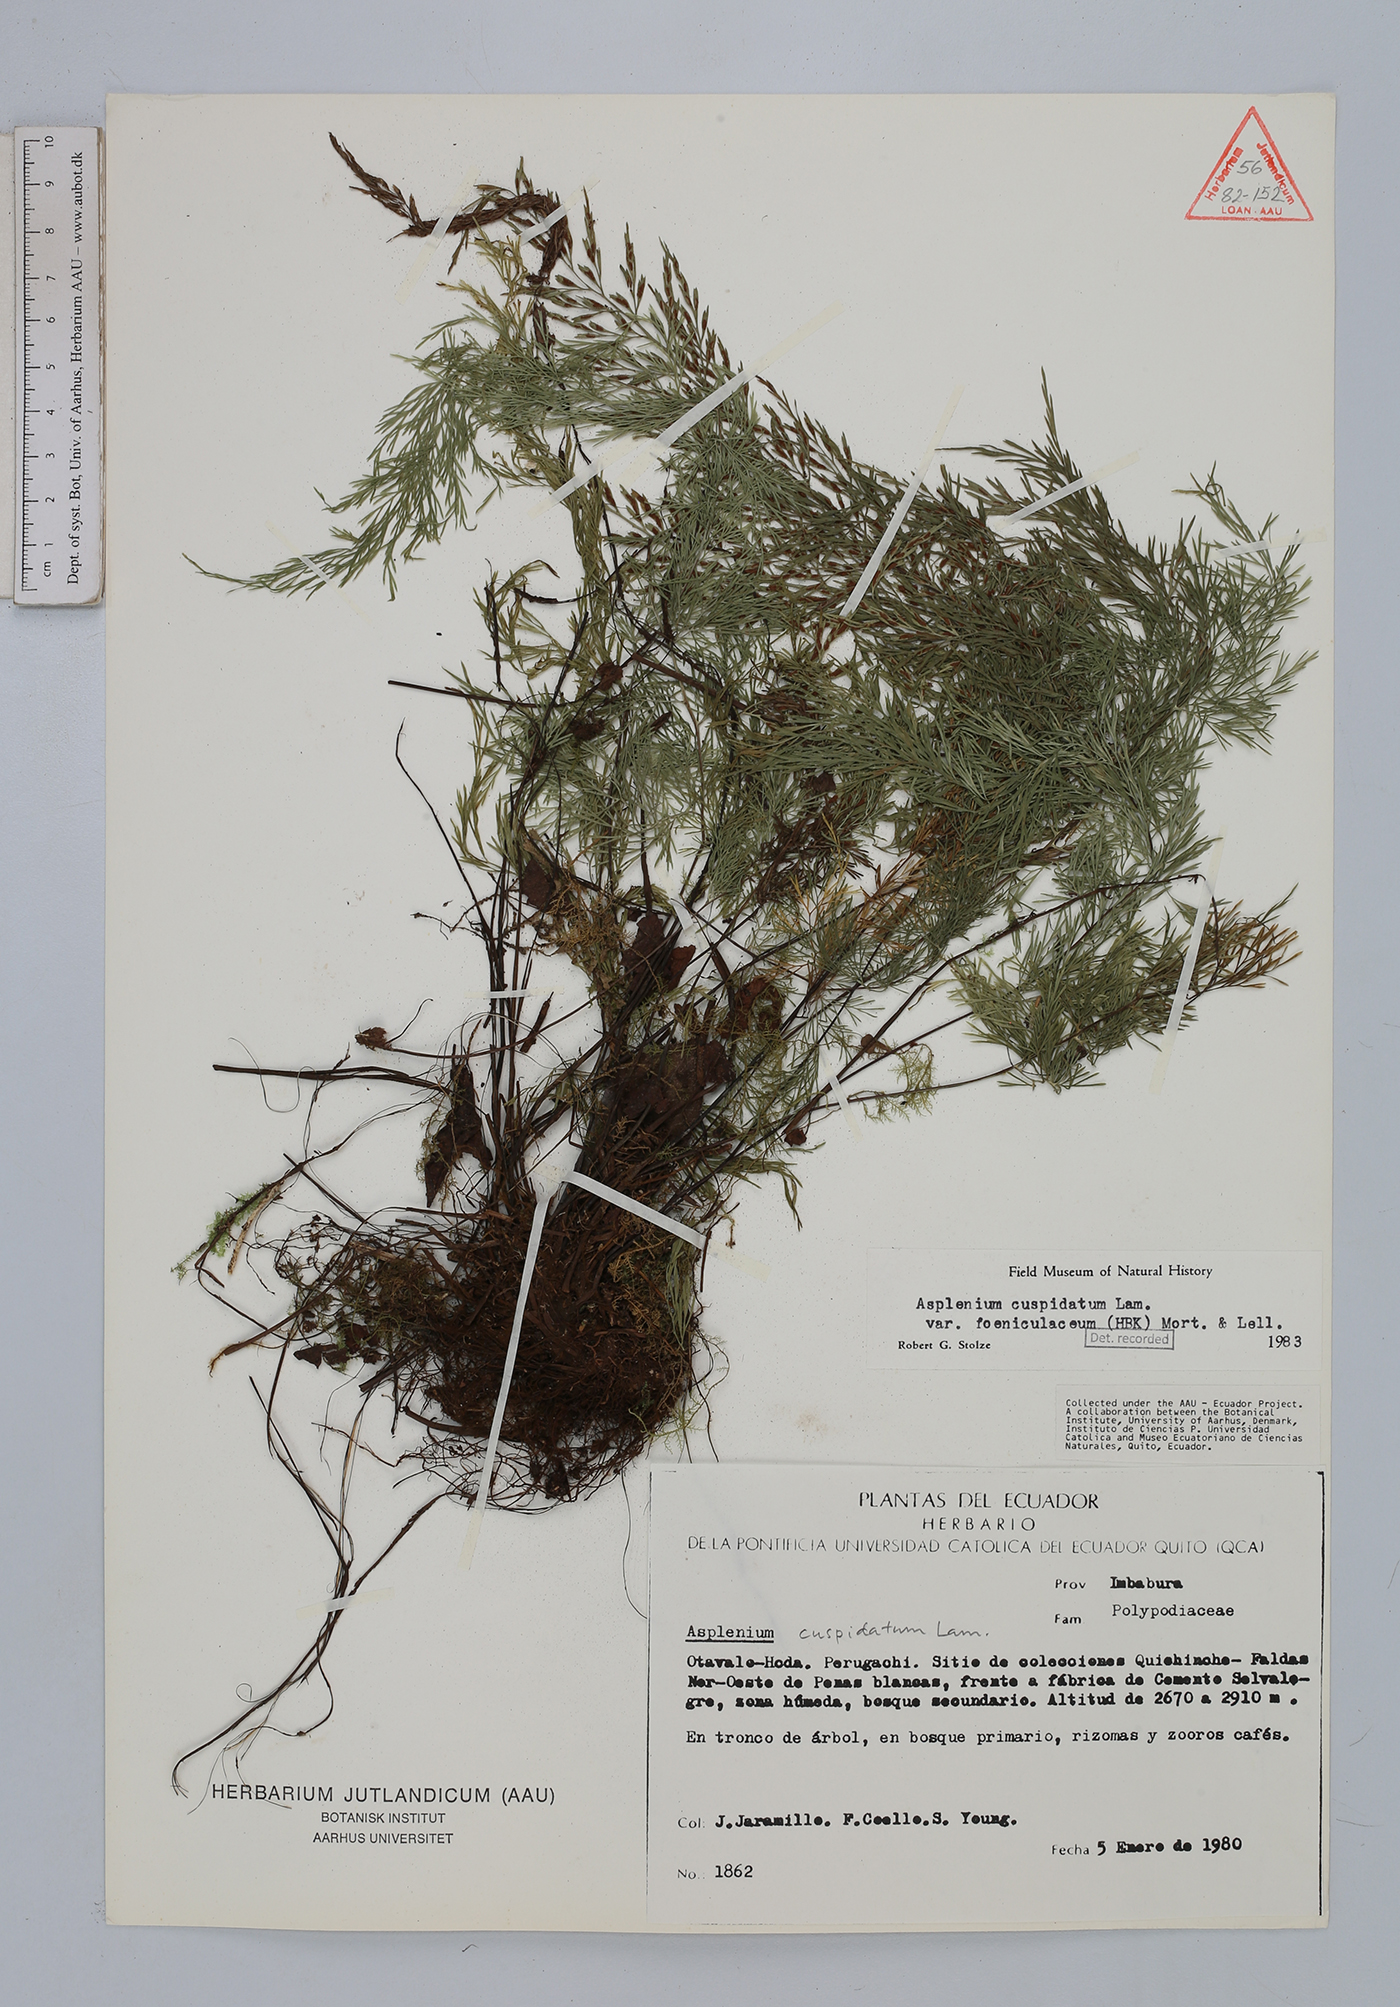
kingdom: Plantae
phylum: Tracheophyta
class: Polypodiopsida
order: Polypodiales
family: Aspleniaceae
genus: Asplenium
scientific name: Asplenium fragrans
